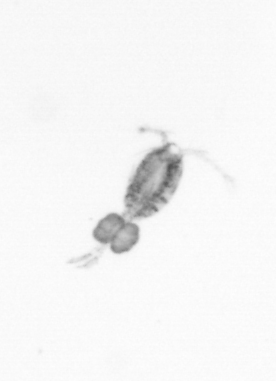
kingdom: Animalia
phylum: Arthropoda
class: Copepoda
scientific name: Copepoda
